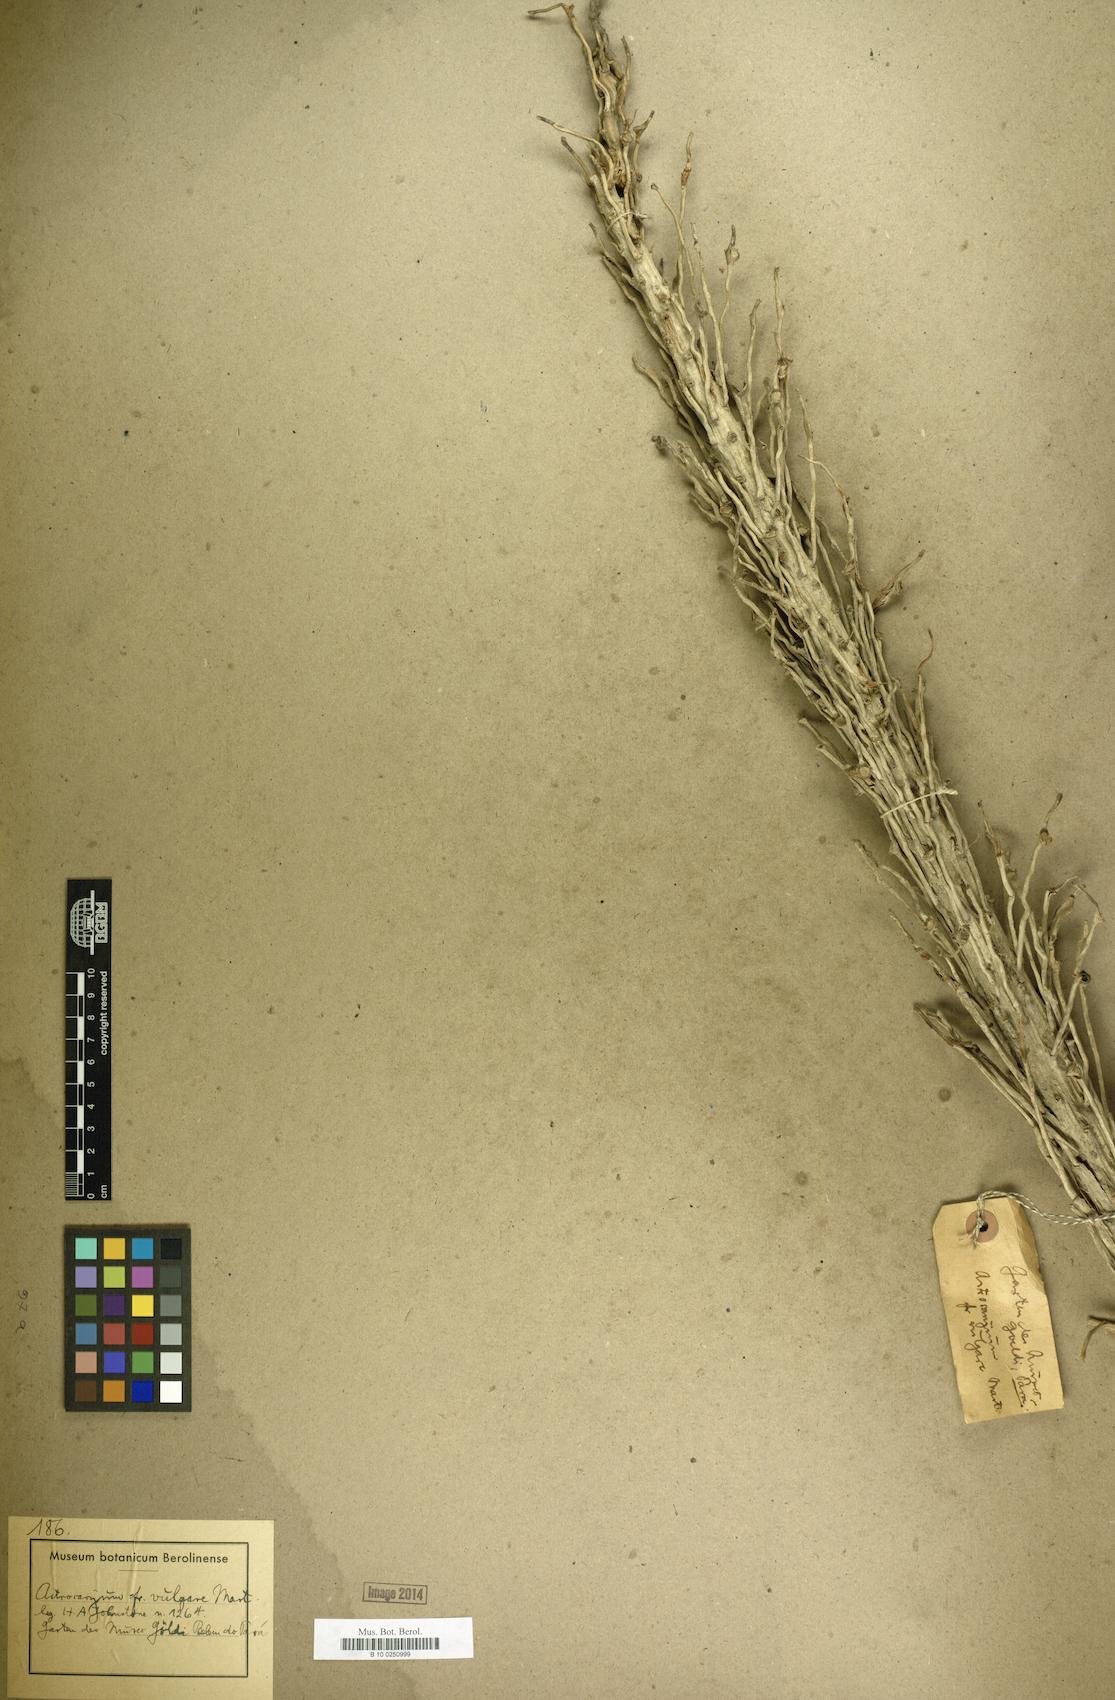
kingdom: Plantae
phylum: Tracheophyta
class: Liliopsida
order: Arecales
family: Arecaceae
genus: Astrocaryum
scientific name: Astrocaryum vulgare
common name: Tucum palm
